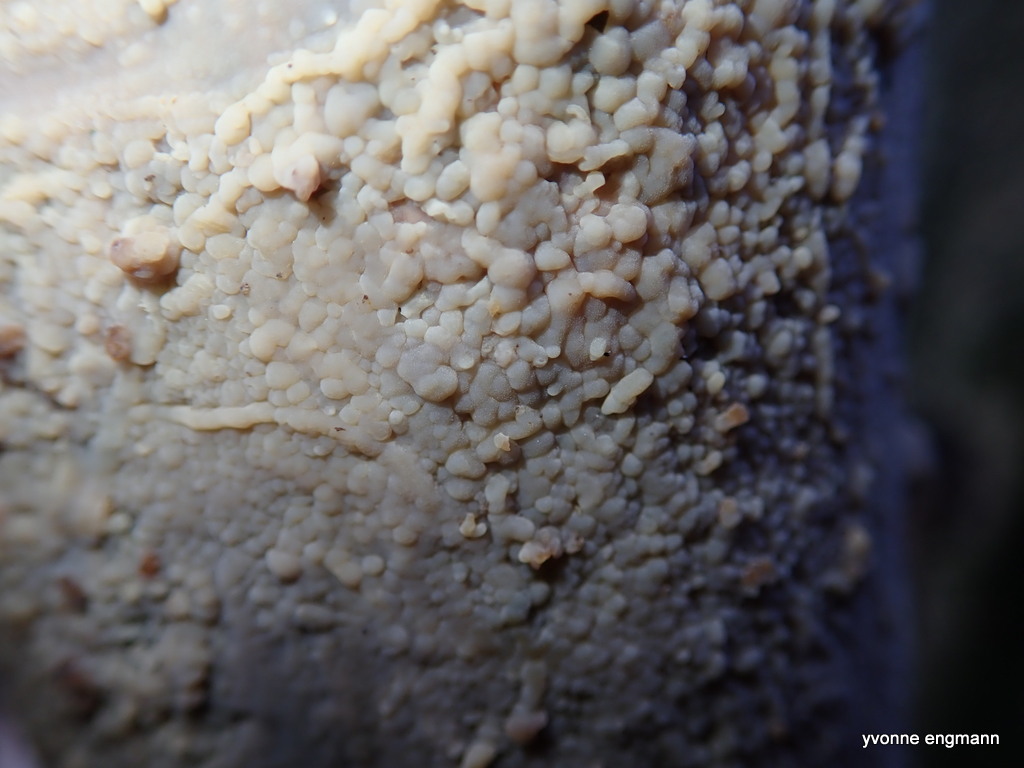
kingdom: Fungi
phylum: Basidiomycota
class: Agaricomycetes
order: Corticiales
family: Corticiaceae
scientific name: Corticiaceae
